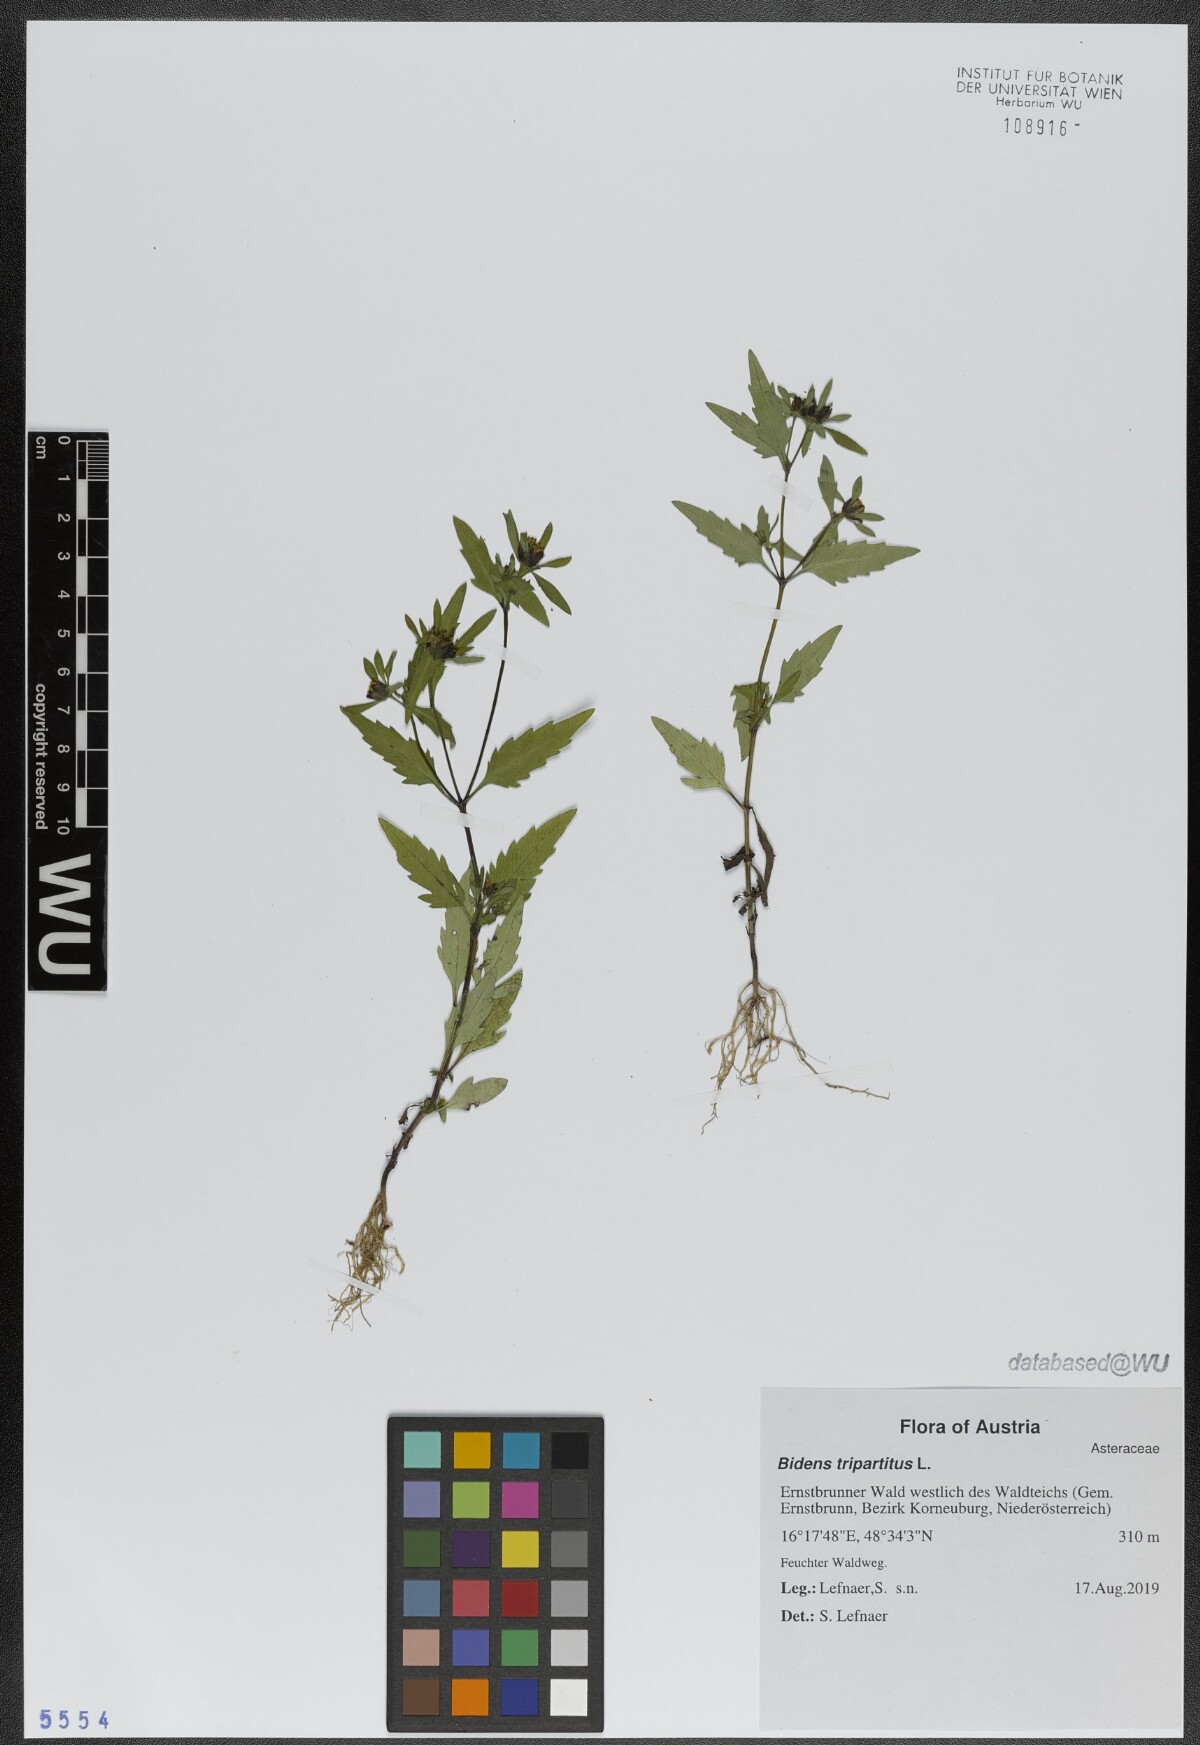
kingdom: Plantae
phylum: Tracheophyta
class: Magnoliopsida
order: Asterales
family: Asteraceae
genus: Bidens
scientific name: Bidens tripartita
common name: Trifid bur-marigold
